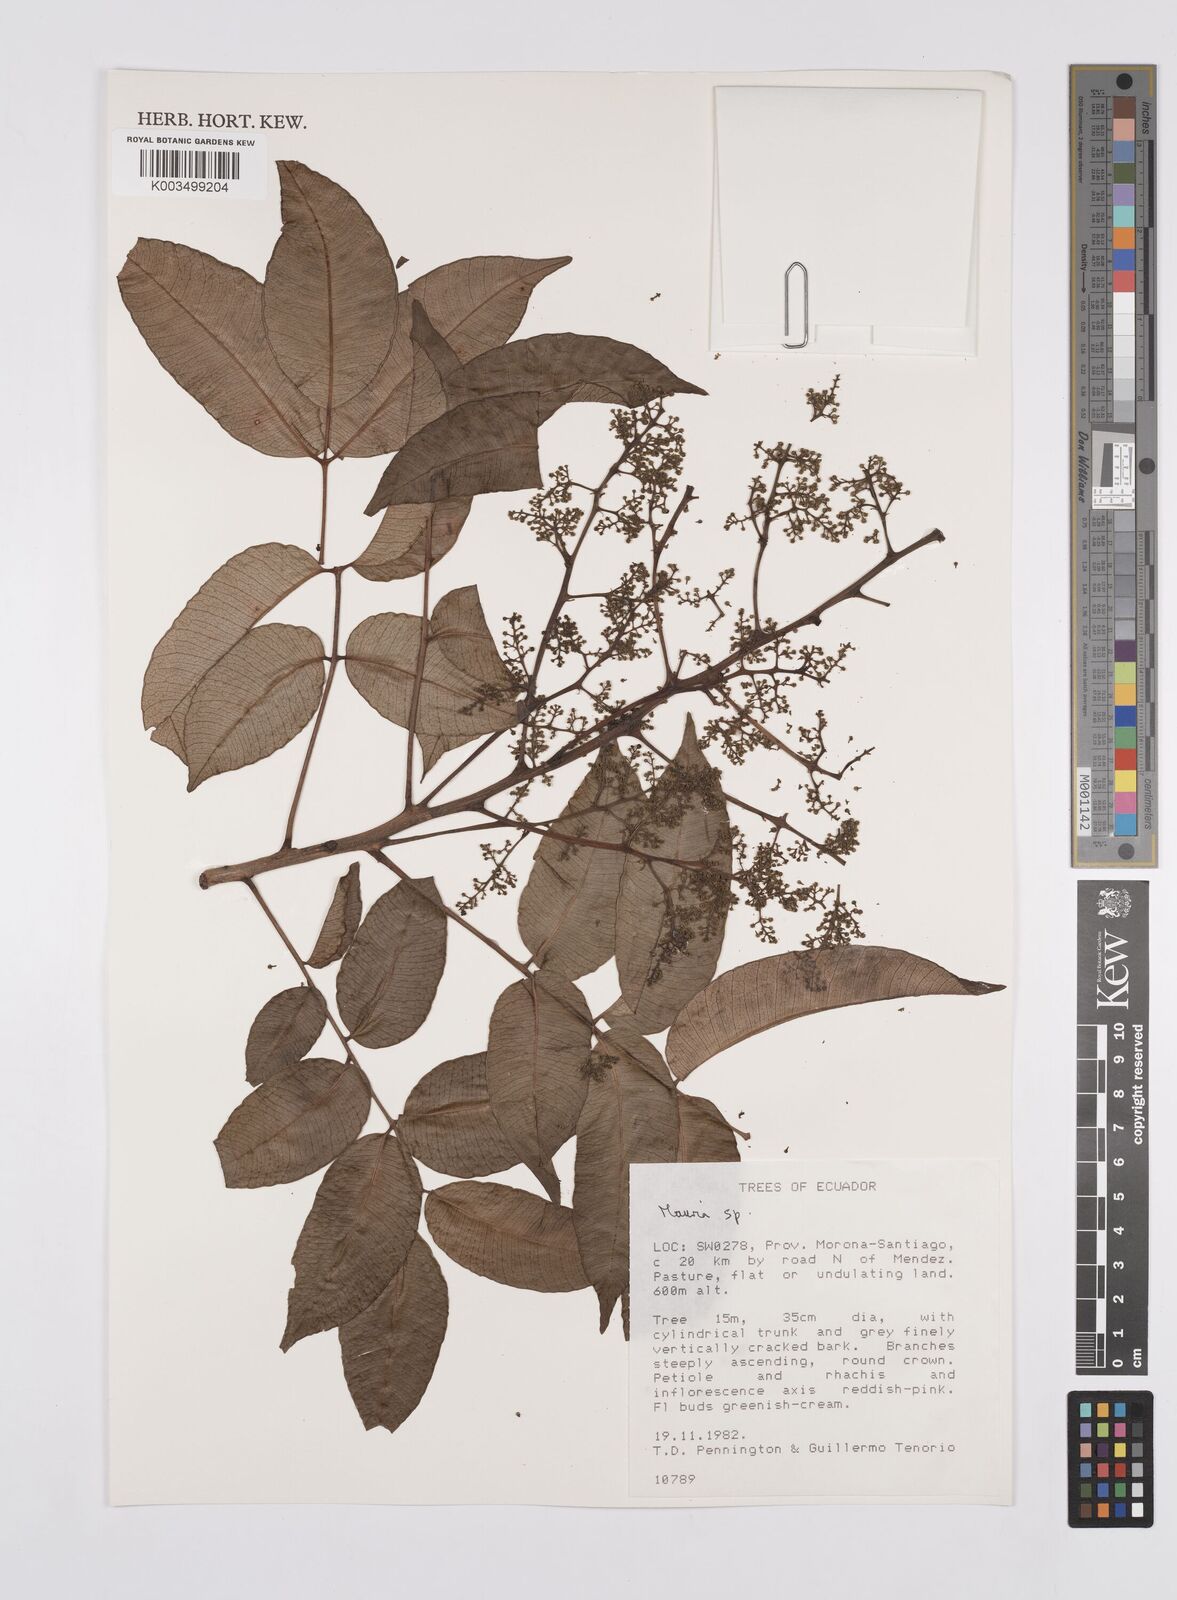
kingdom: Plantae
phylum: Tracheophyta
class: Magnoliopsida
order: Sapindales
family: Anacardiaceae
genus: Mauria
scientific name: Mauria
